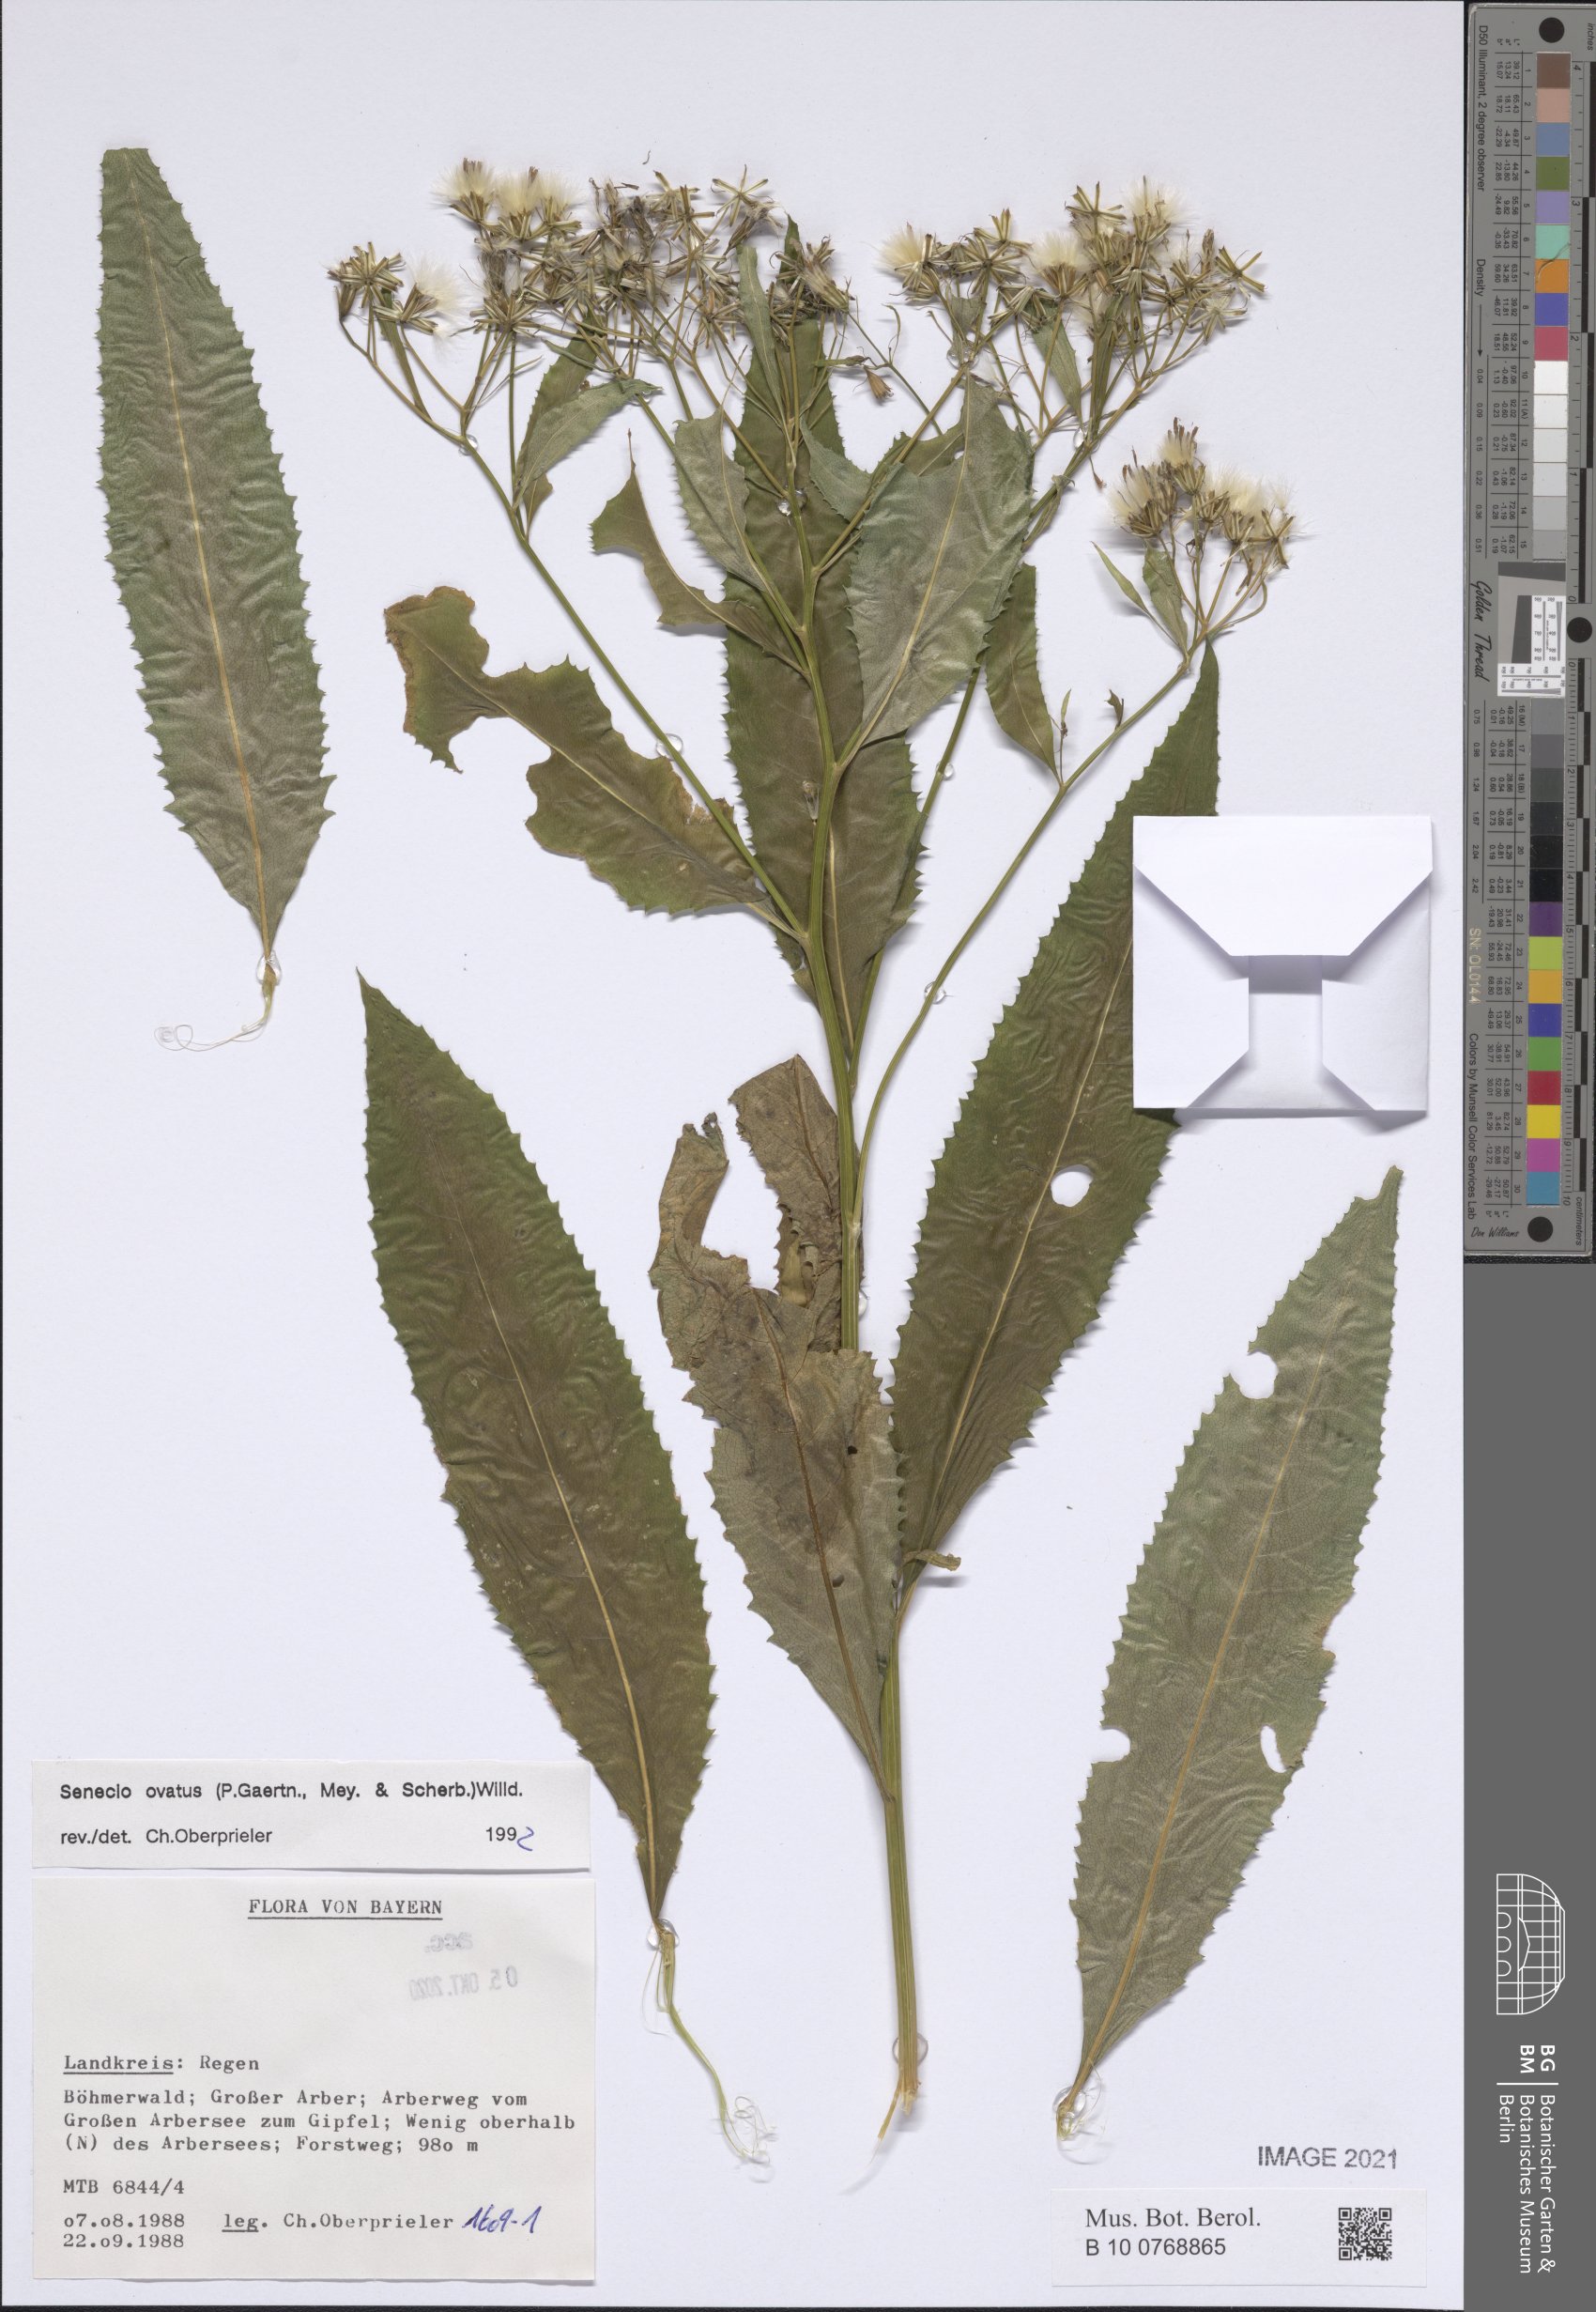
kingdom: Plantae
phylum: Tracheophyta
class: Magnoliopsida
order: Asterales
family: Asteraceae
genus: Senecio
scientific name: Senecio ovatus
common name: Wood ragwort
